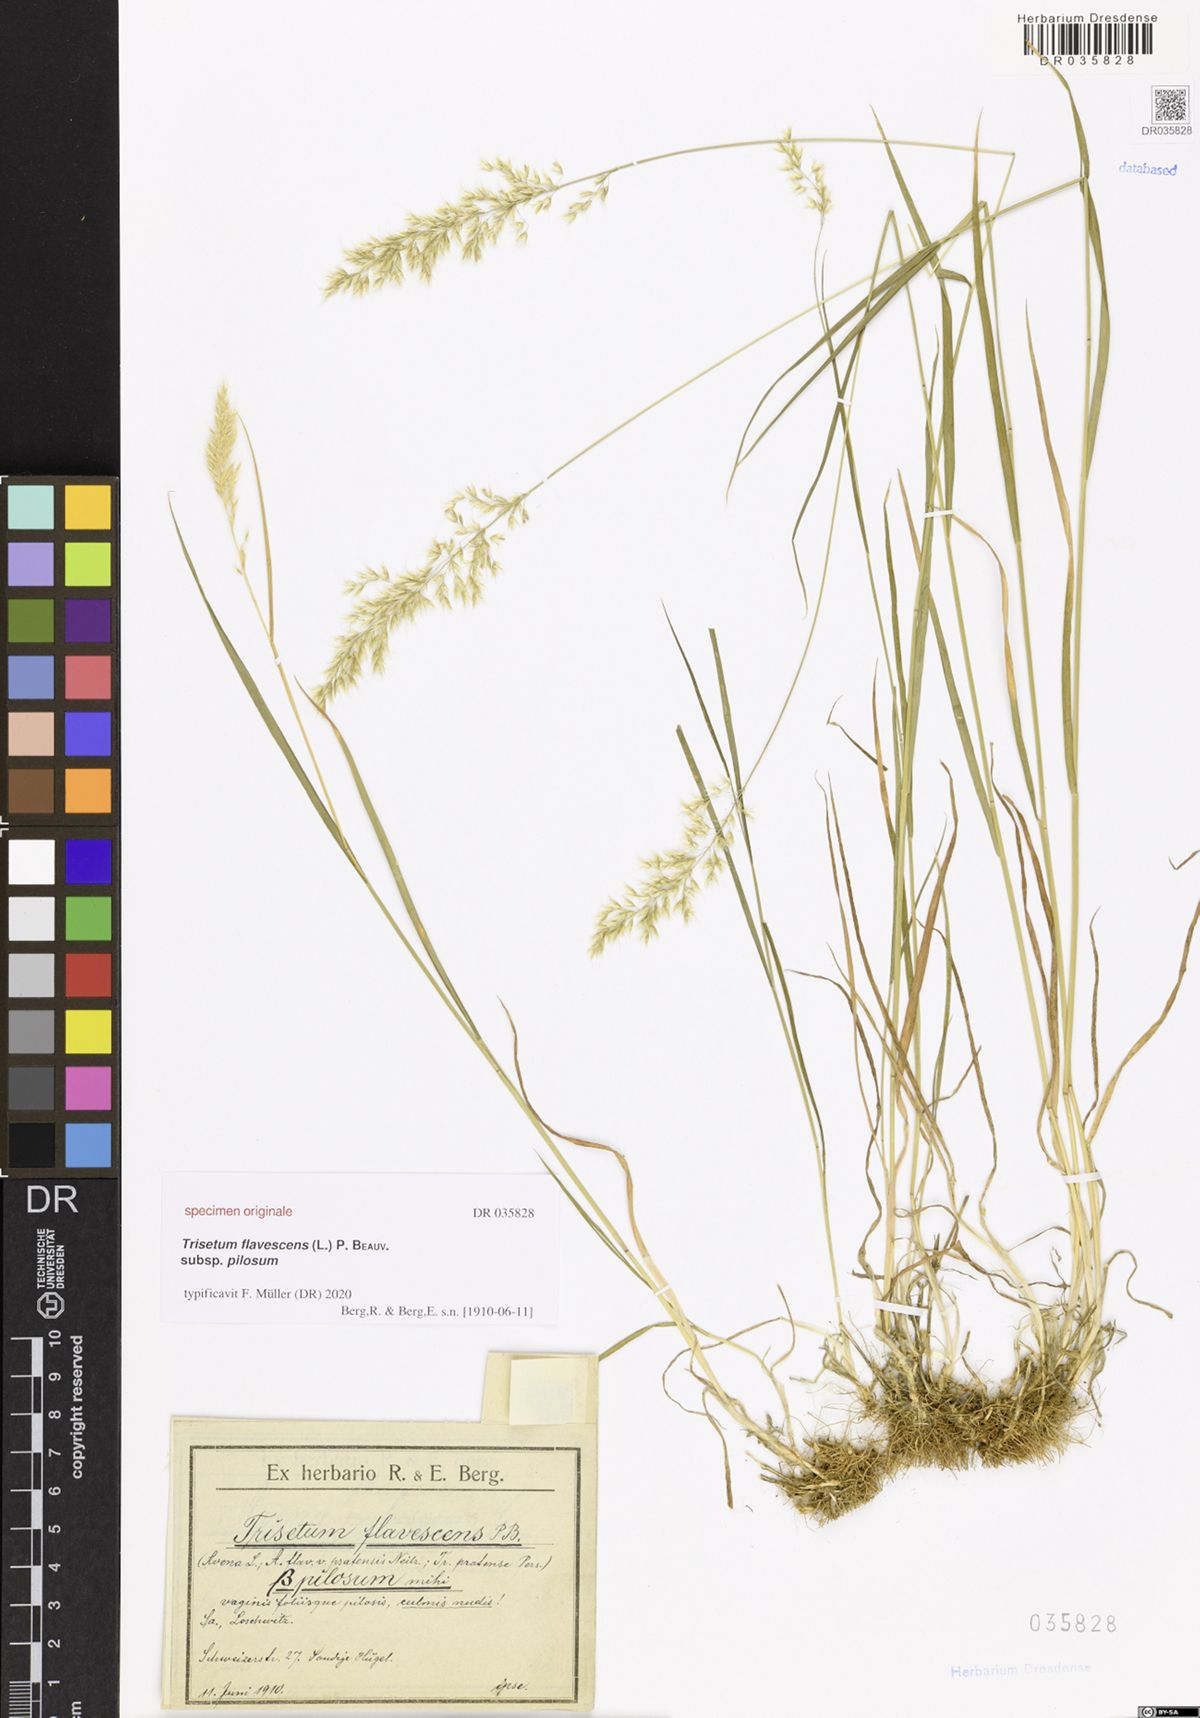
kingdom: Plantae
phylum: Tracheophyta
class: Liliopsida
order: Poales
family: Poaceae
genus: Trisetum
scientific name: Trisetum flavescens
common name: Yellow oat-grass
